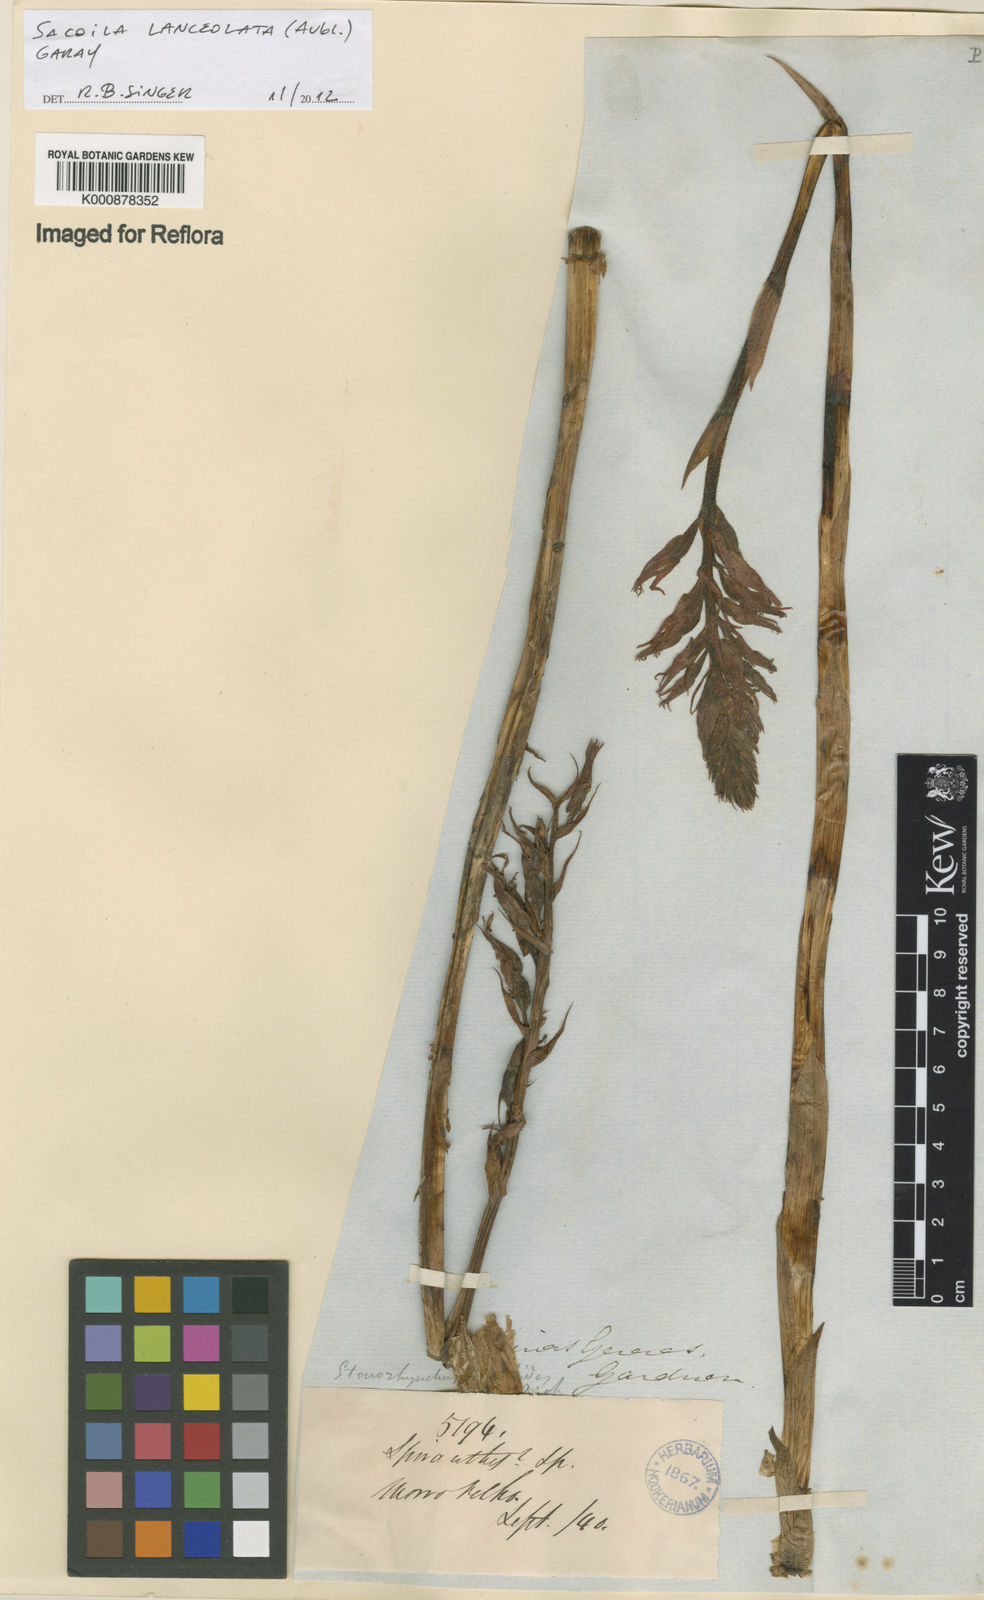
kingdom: Plantae
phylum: Tracheophyta
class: Liliopsida
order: Asparagales
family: Orchidaceae
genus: Sacoila
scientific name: Sacoila lanceolata
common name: Leafless beaked ladiestresses
